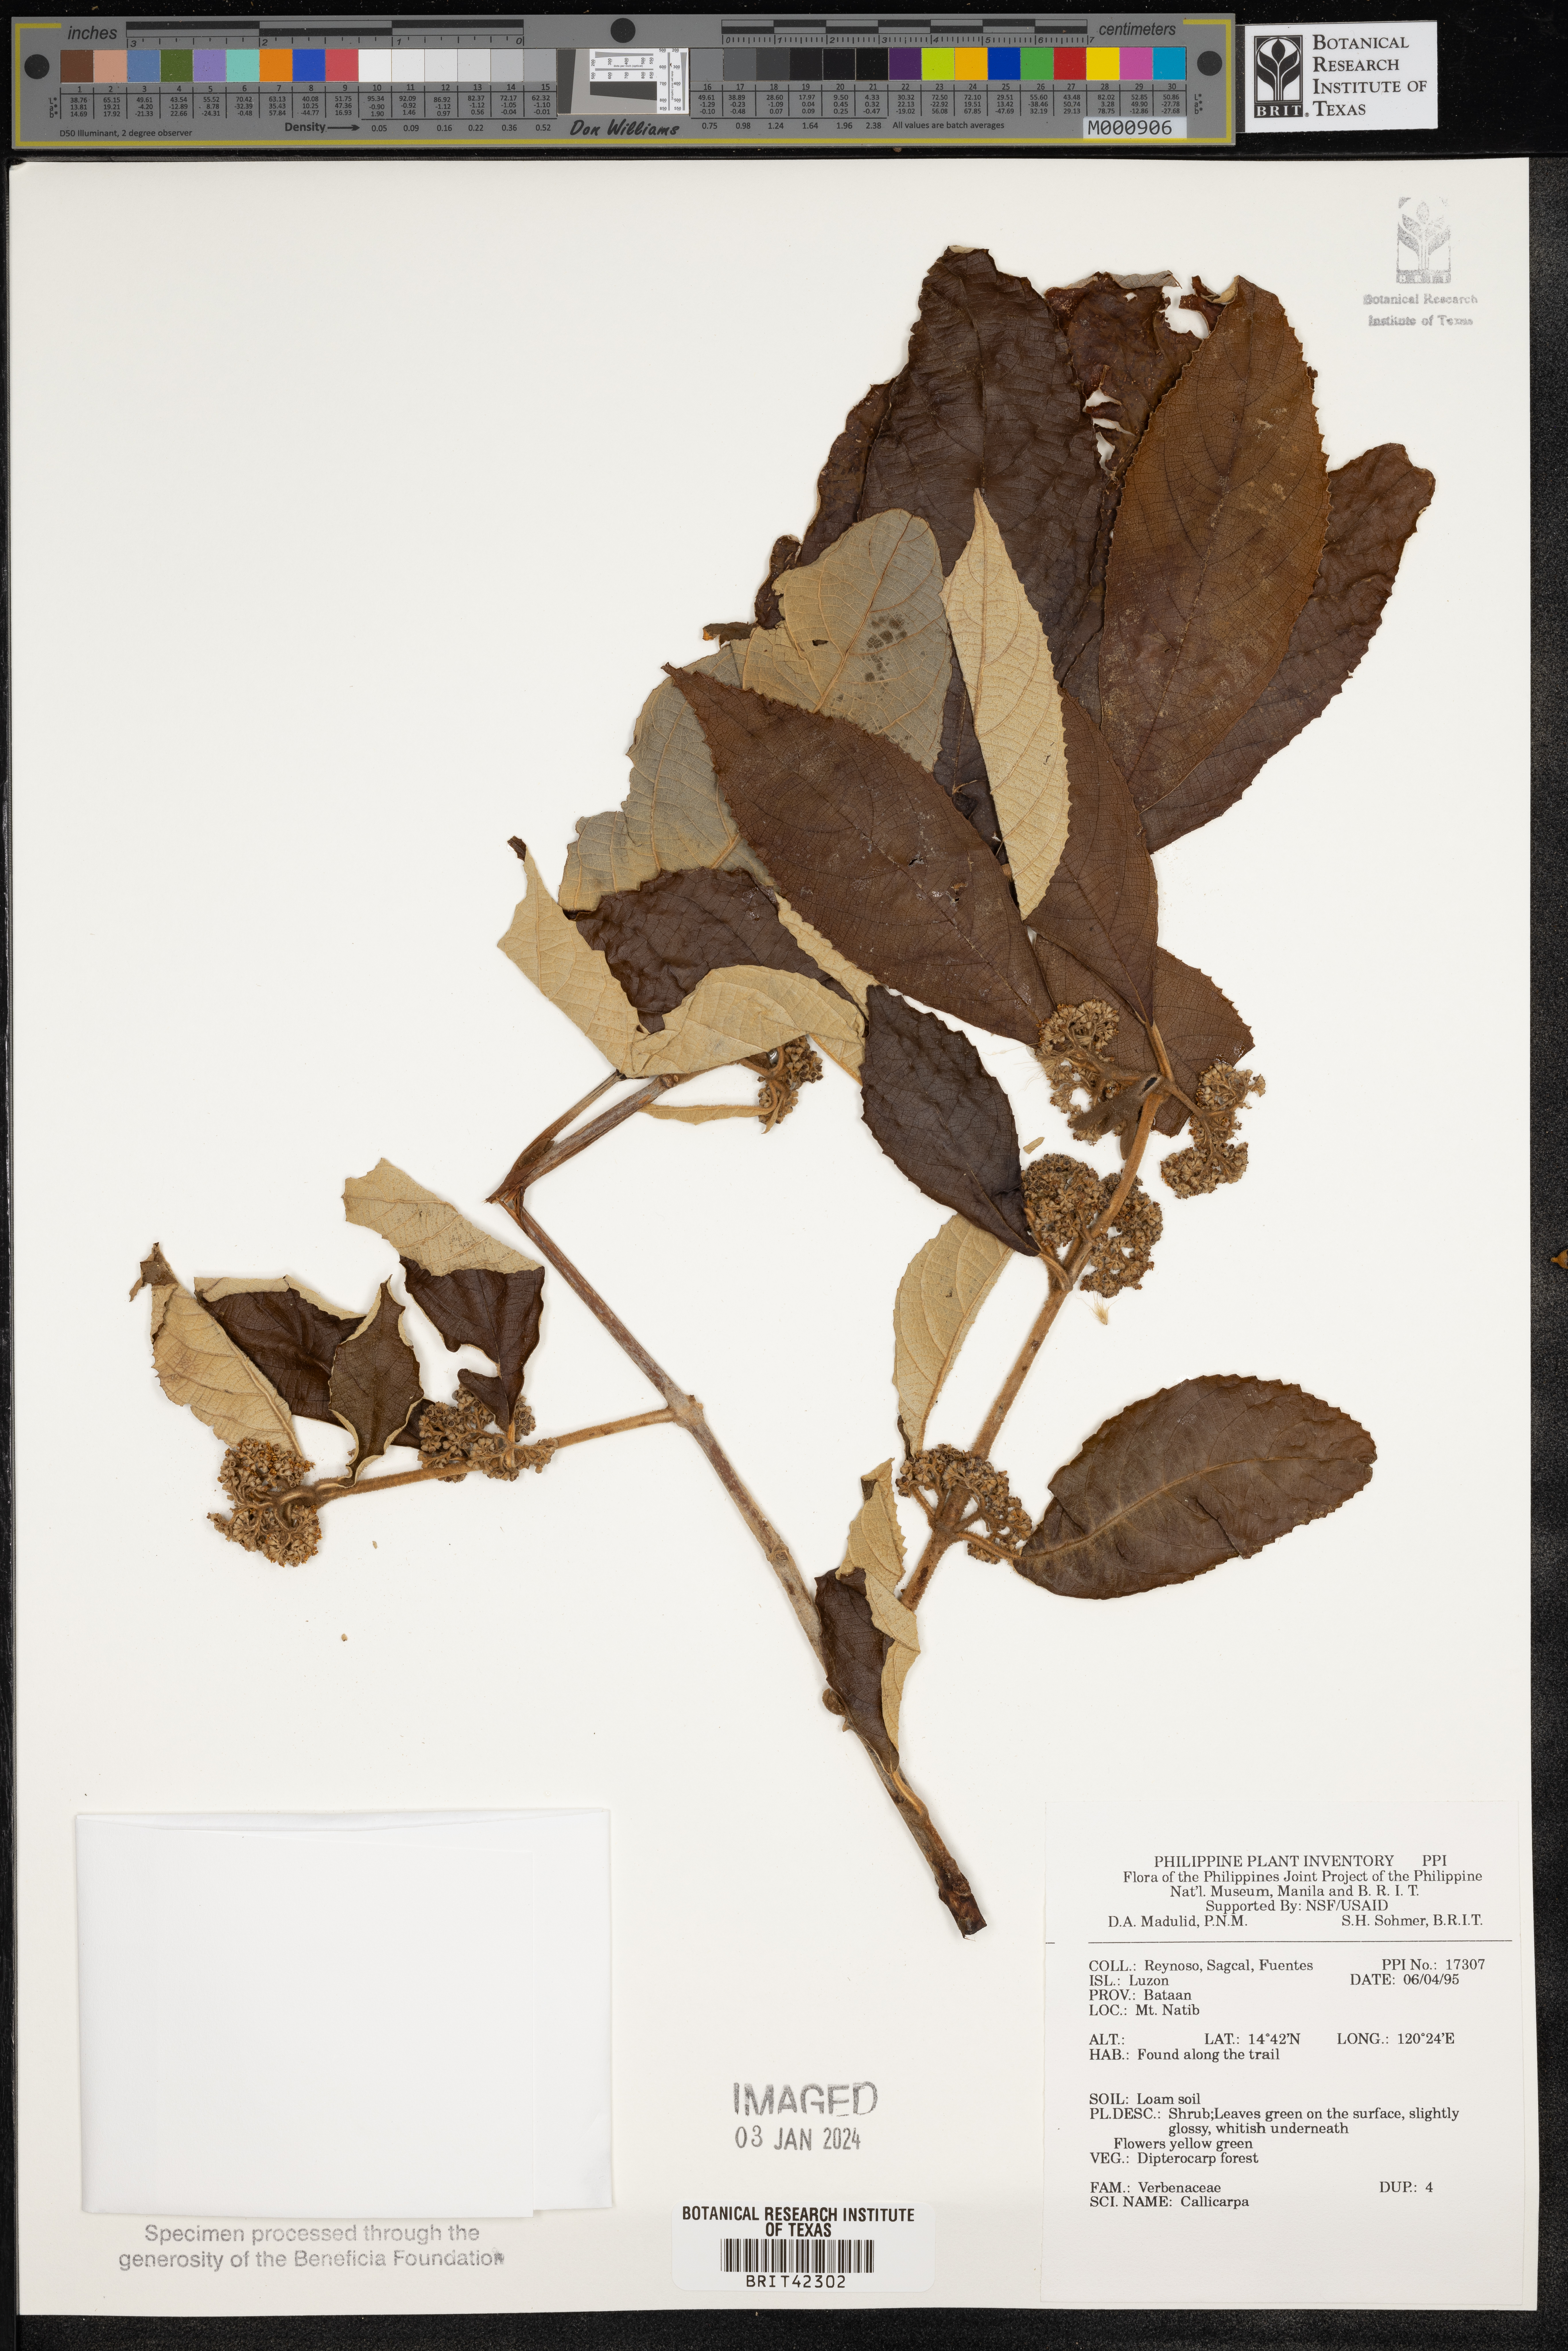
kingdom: Plantae
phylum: Tracheophyta
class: Magnoliopsida
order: Lamiales
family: Lamiaceae
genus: Callicarpa
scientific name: Callicarpa
